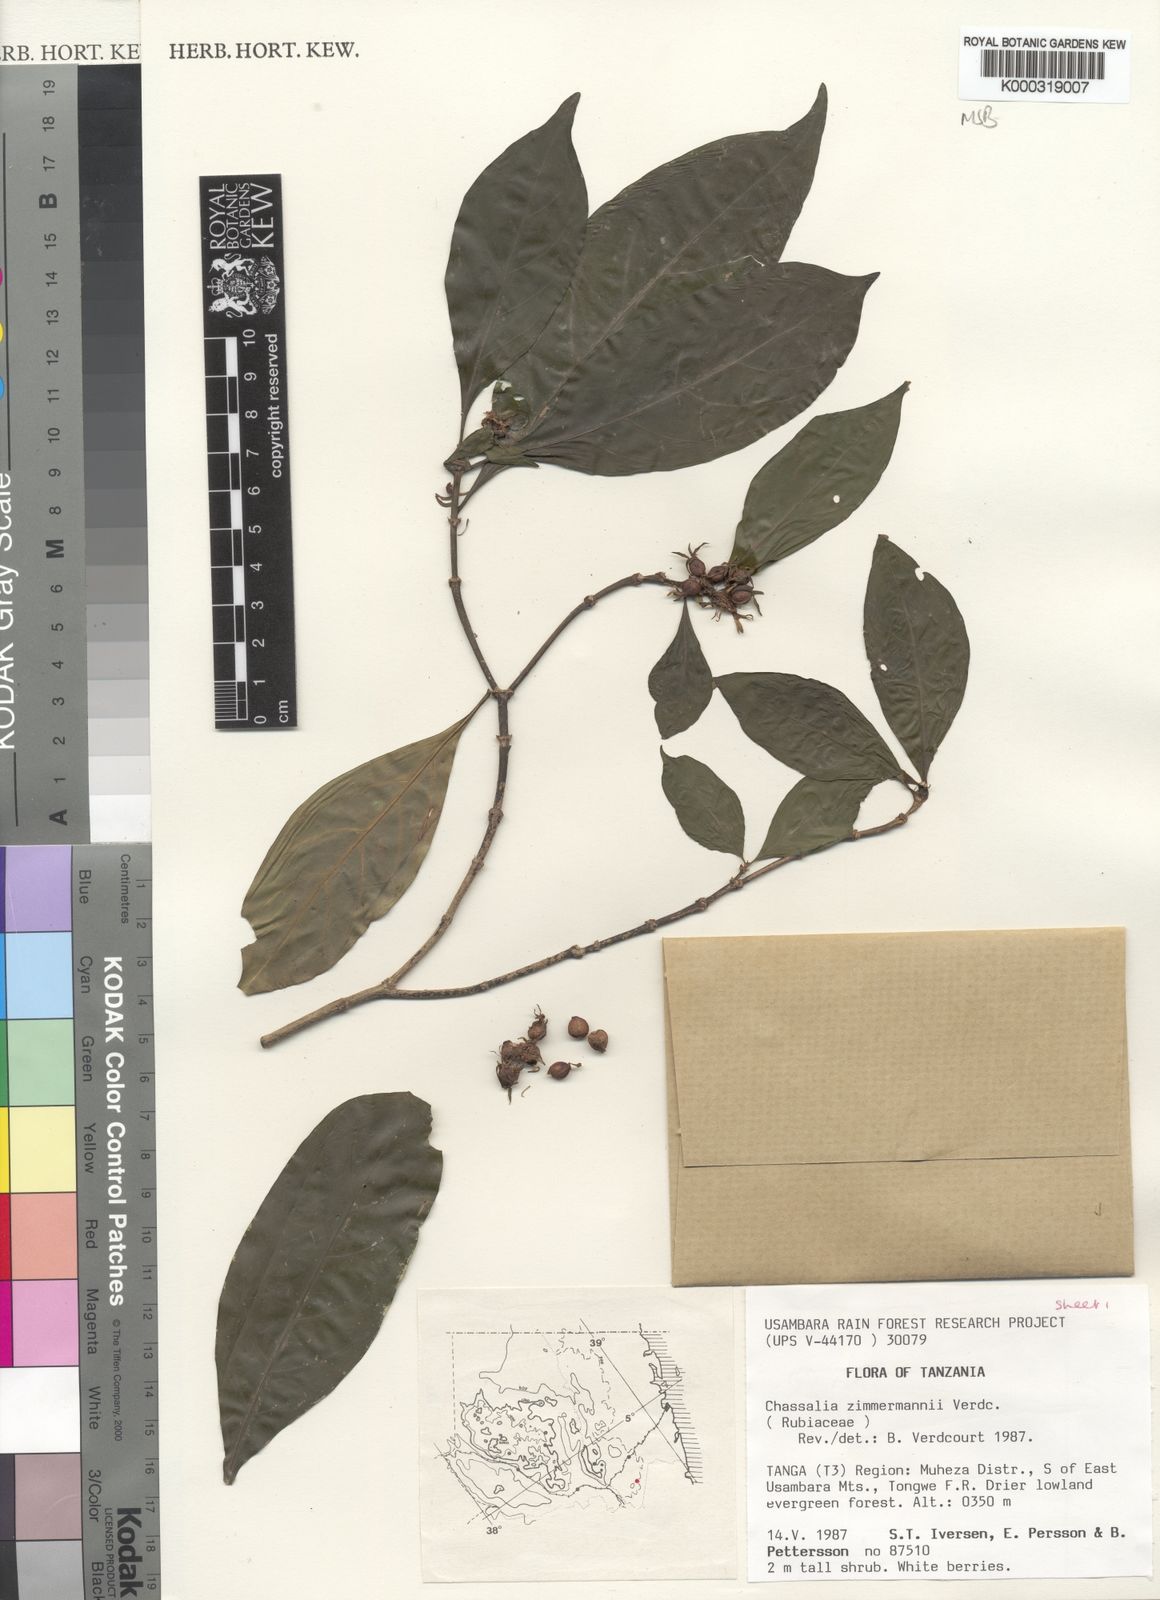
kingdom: Plantae
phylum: Tracheophyta
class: Magnoliopsida
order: Gentianales
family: Rubiaceae
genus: Chassalia
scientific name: Chassalia zimmermannii
